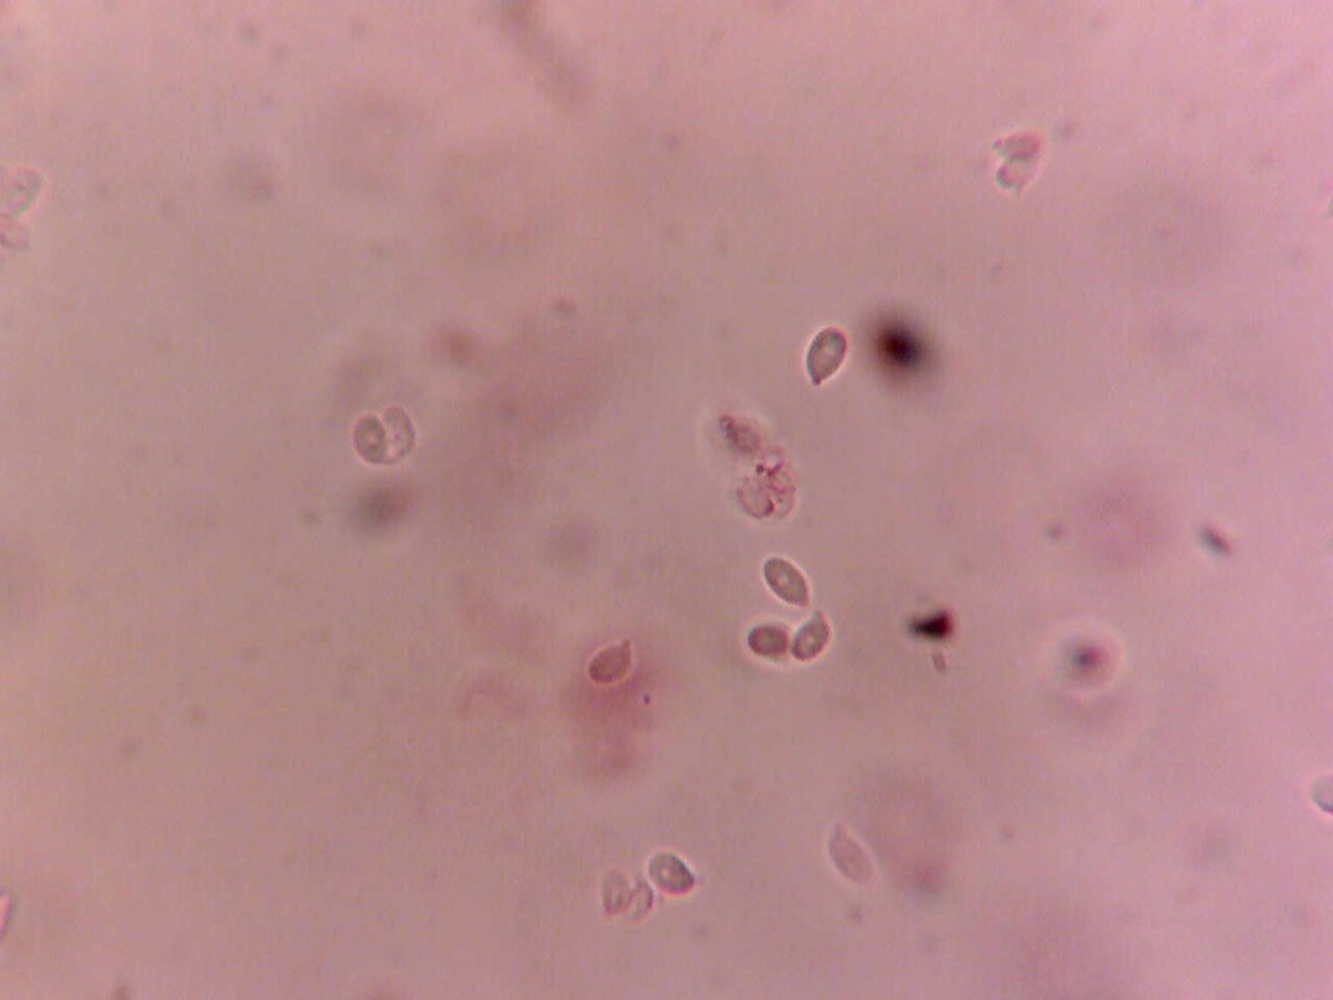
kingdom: Fungi
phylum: Basidiomycota
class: Agaricomycetes
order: Agaricales
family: Tricholomataceae
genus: Omphalina
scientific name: Omphalina microsperma
